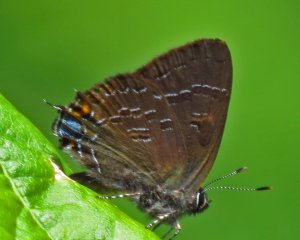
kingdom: Animalia
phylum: Arthropoda
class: Insecta
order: Lepidoptera
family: Lycaenidae
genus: Satyrium
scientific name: Satyrium calanus
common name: Banded Hairstreak
